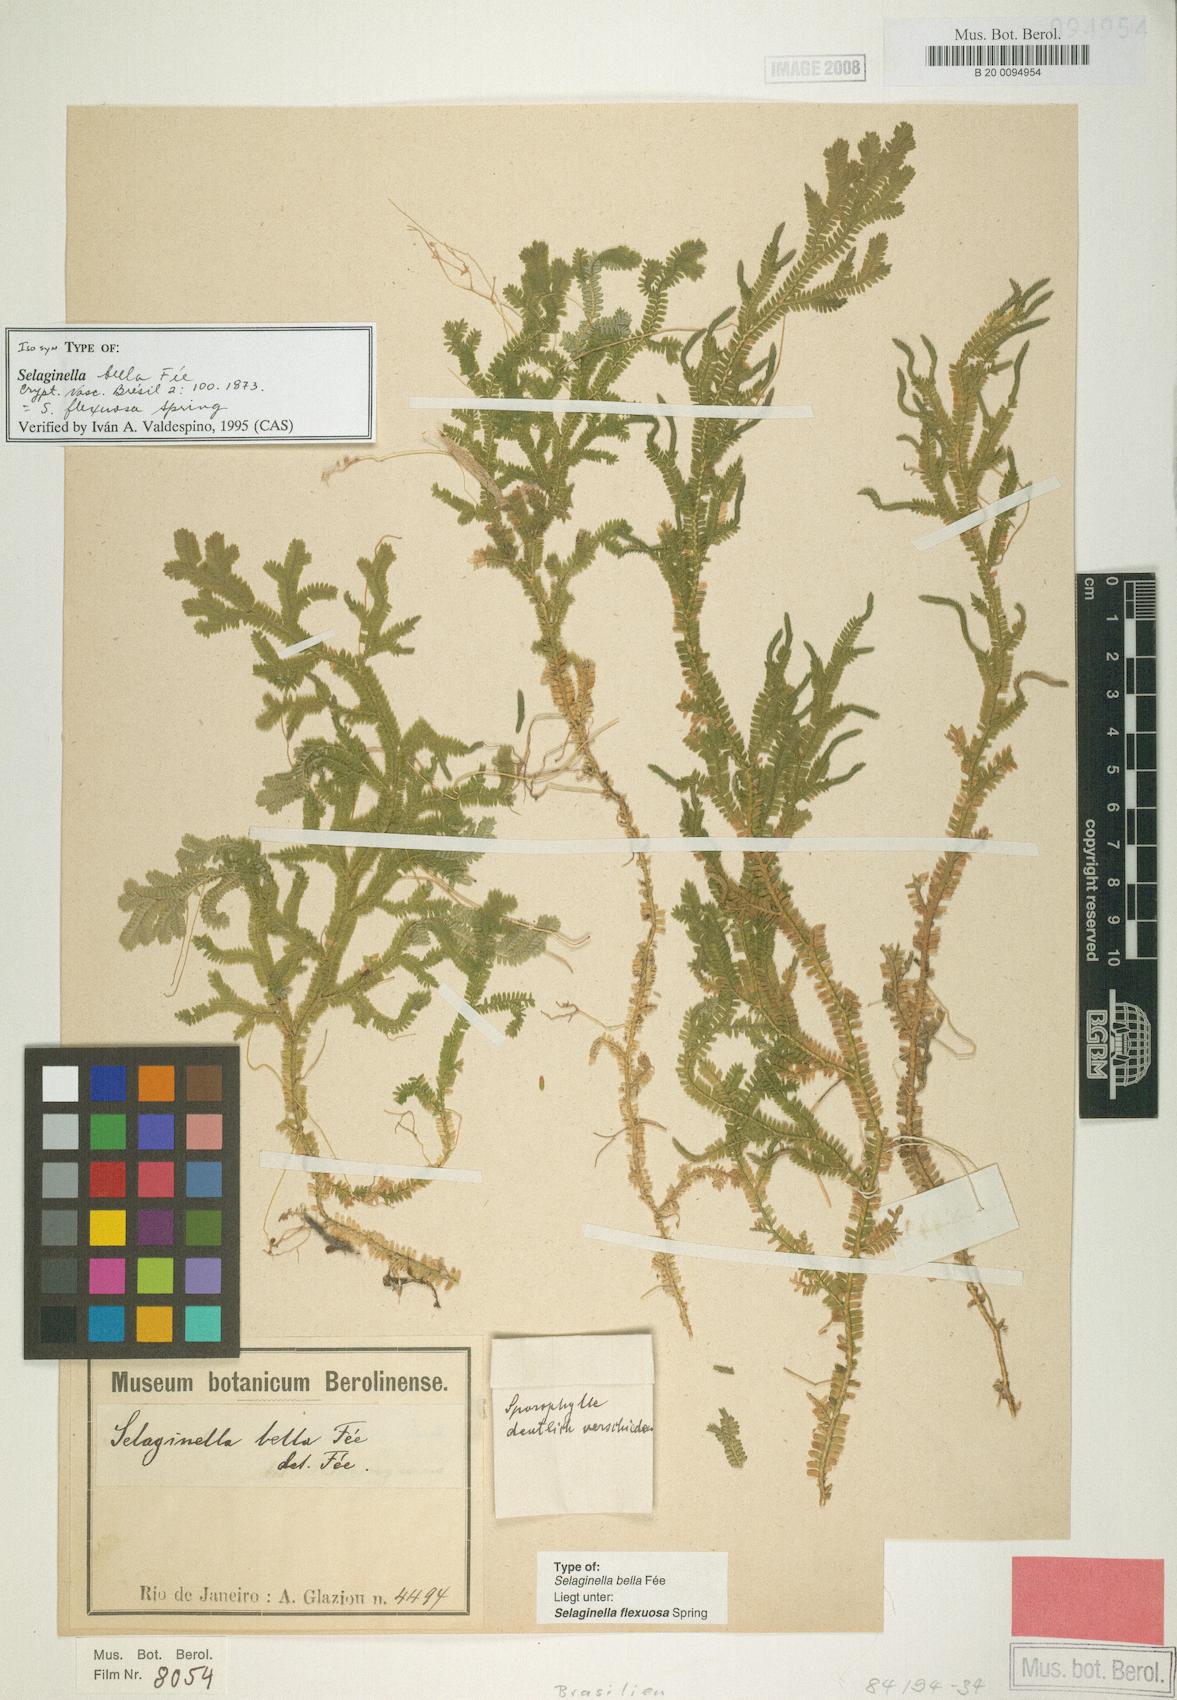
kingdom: Plantae
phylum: Tracheophyta
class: Lycopodiopsida
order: Selaginellales
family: Selaginellaceae
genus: Selaginella
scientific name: Selaginella flexuosa
